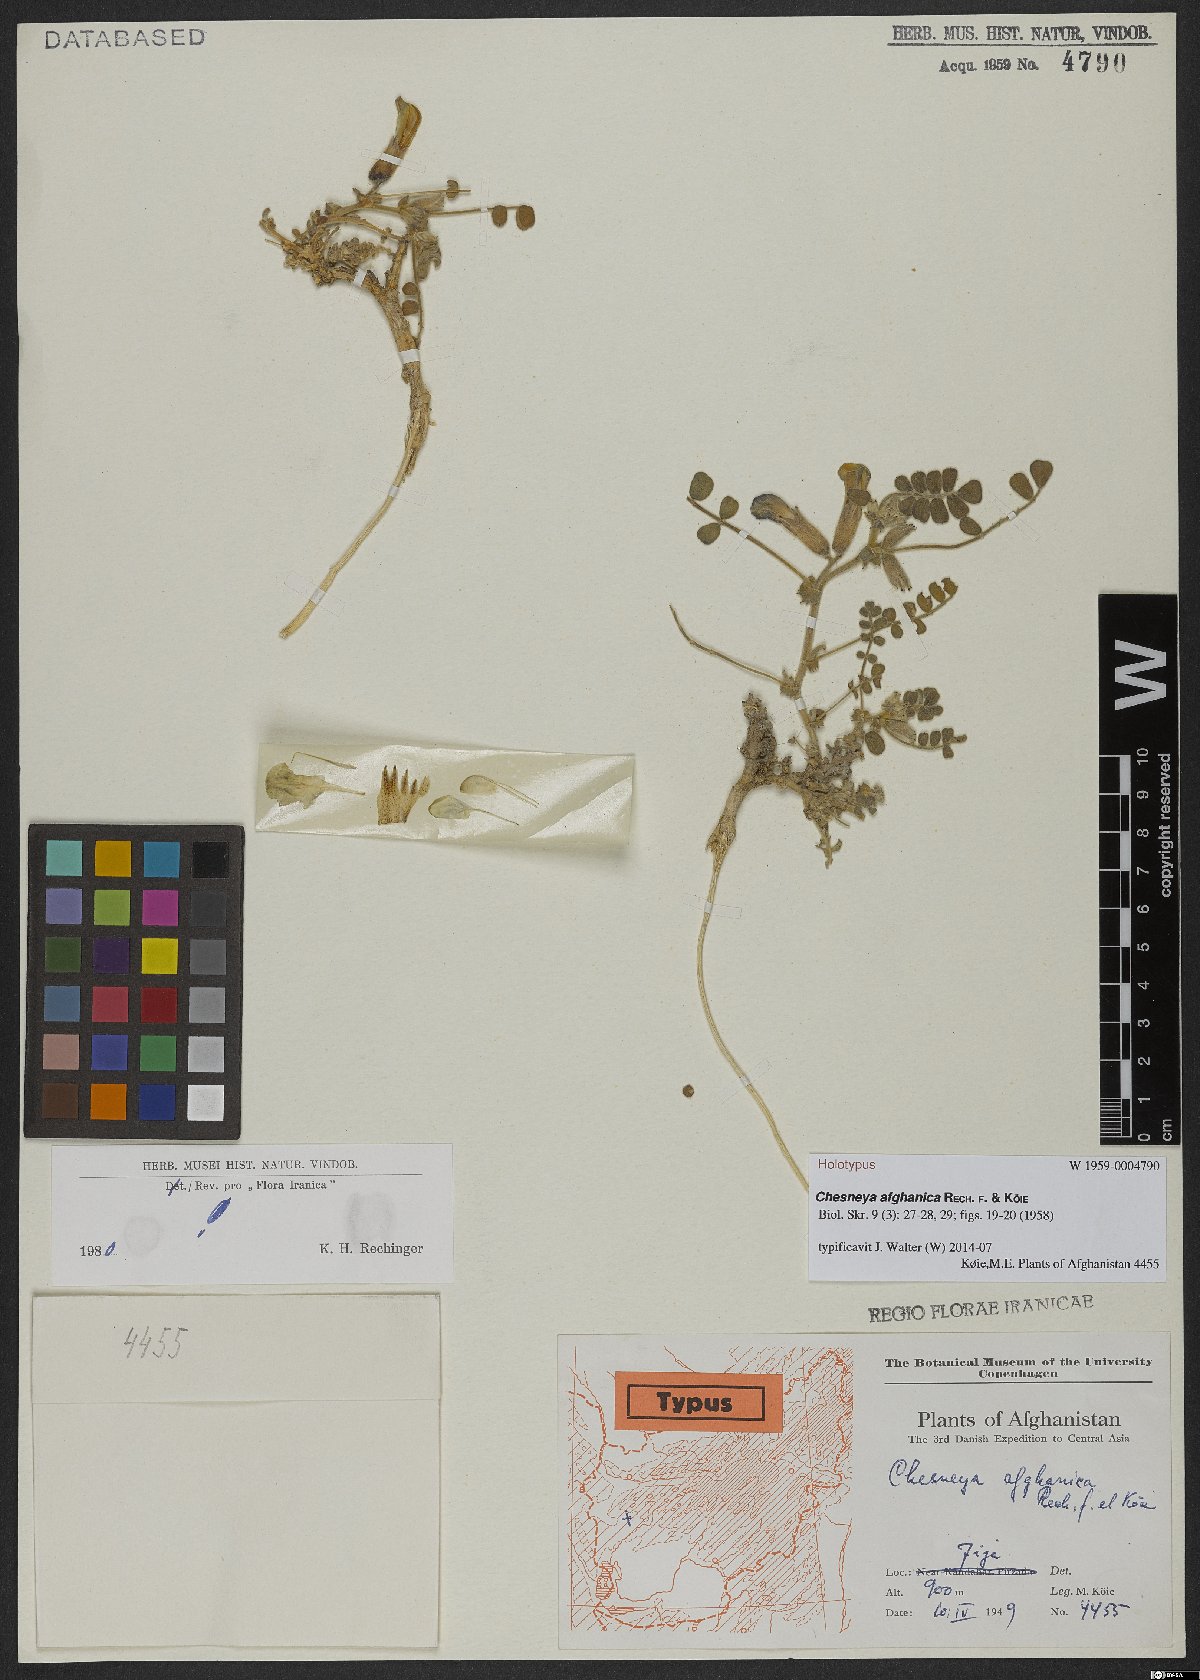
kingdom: Plantae
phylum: Tracheophyta
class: Magnoliopsida
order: Fabales
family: Fabaceae
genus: Chesneya
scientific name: Chesneya afghanica
